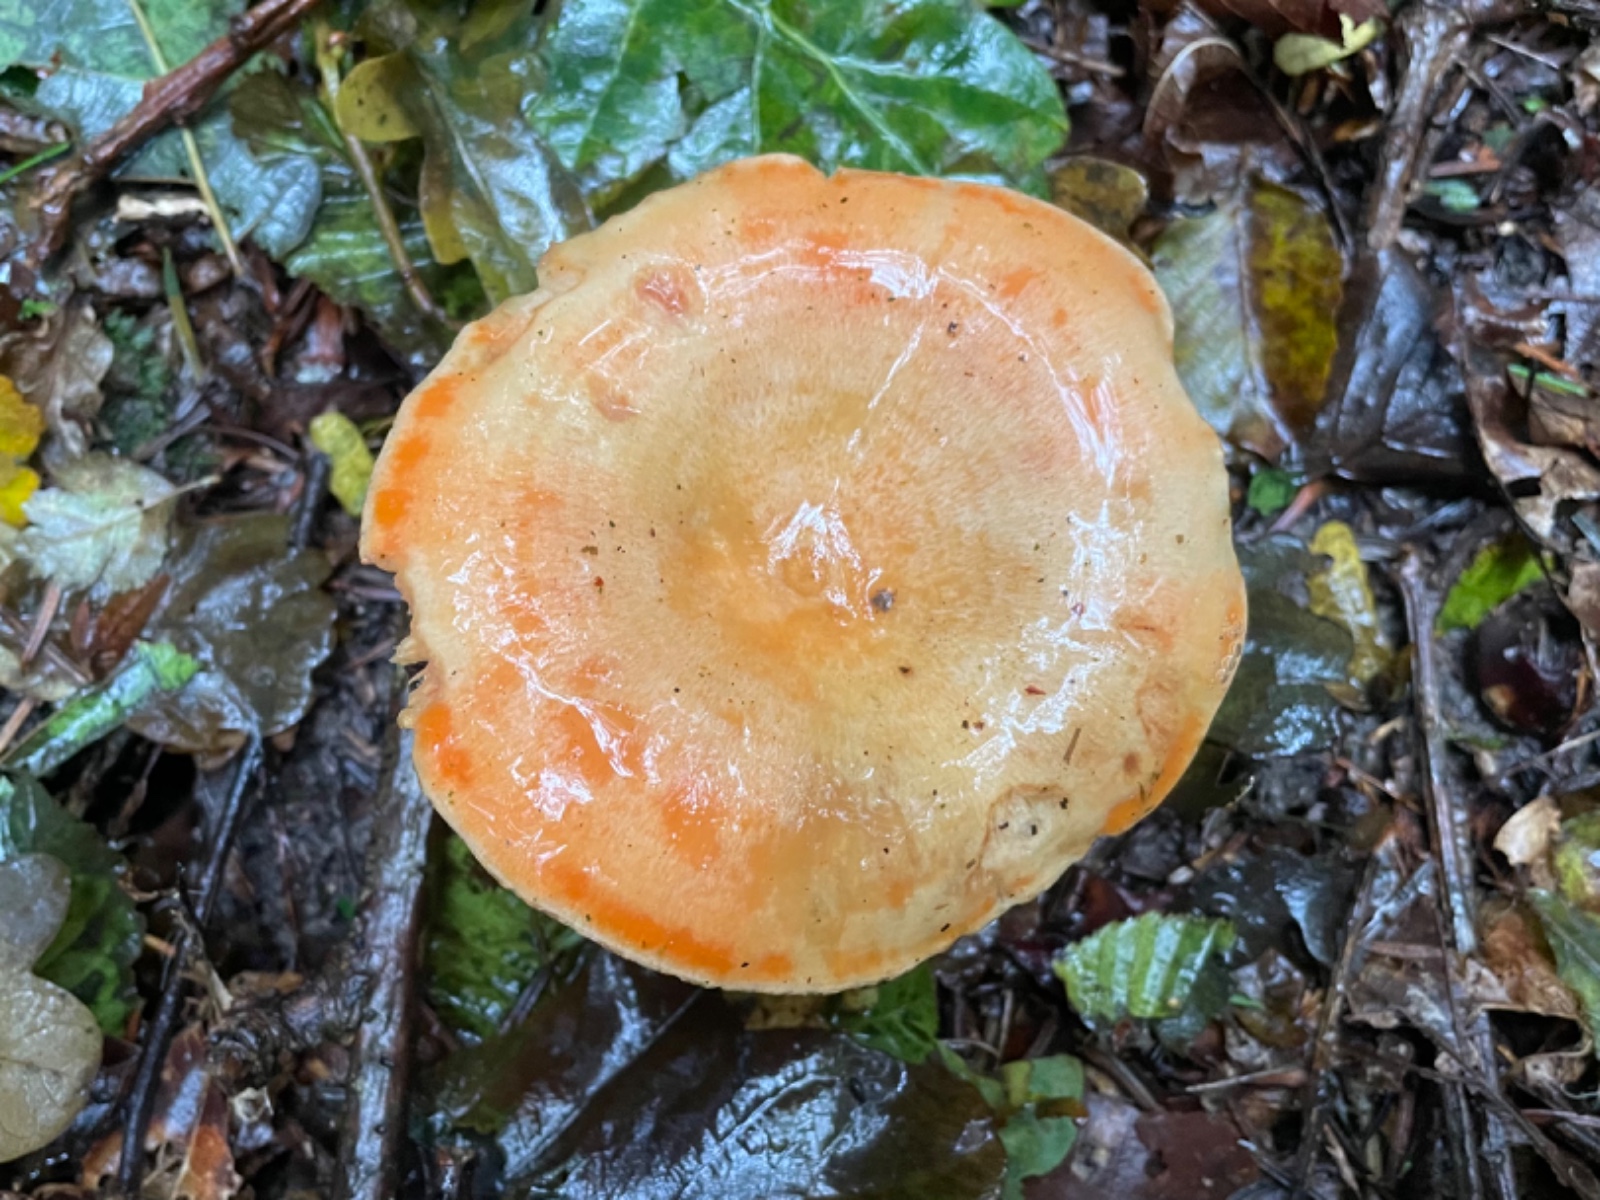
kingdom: Fungi
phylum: Basidiomycota
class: Agaricomycetes
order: Russulales
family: Russulaceae
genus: Lactarius
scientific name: Lactarius salmonicolor
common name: laksefarvet mælkehat
